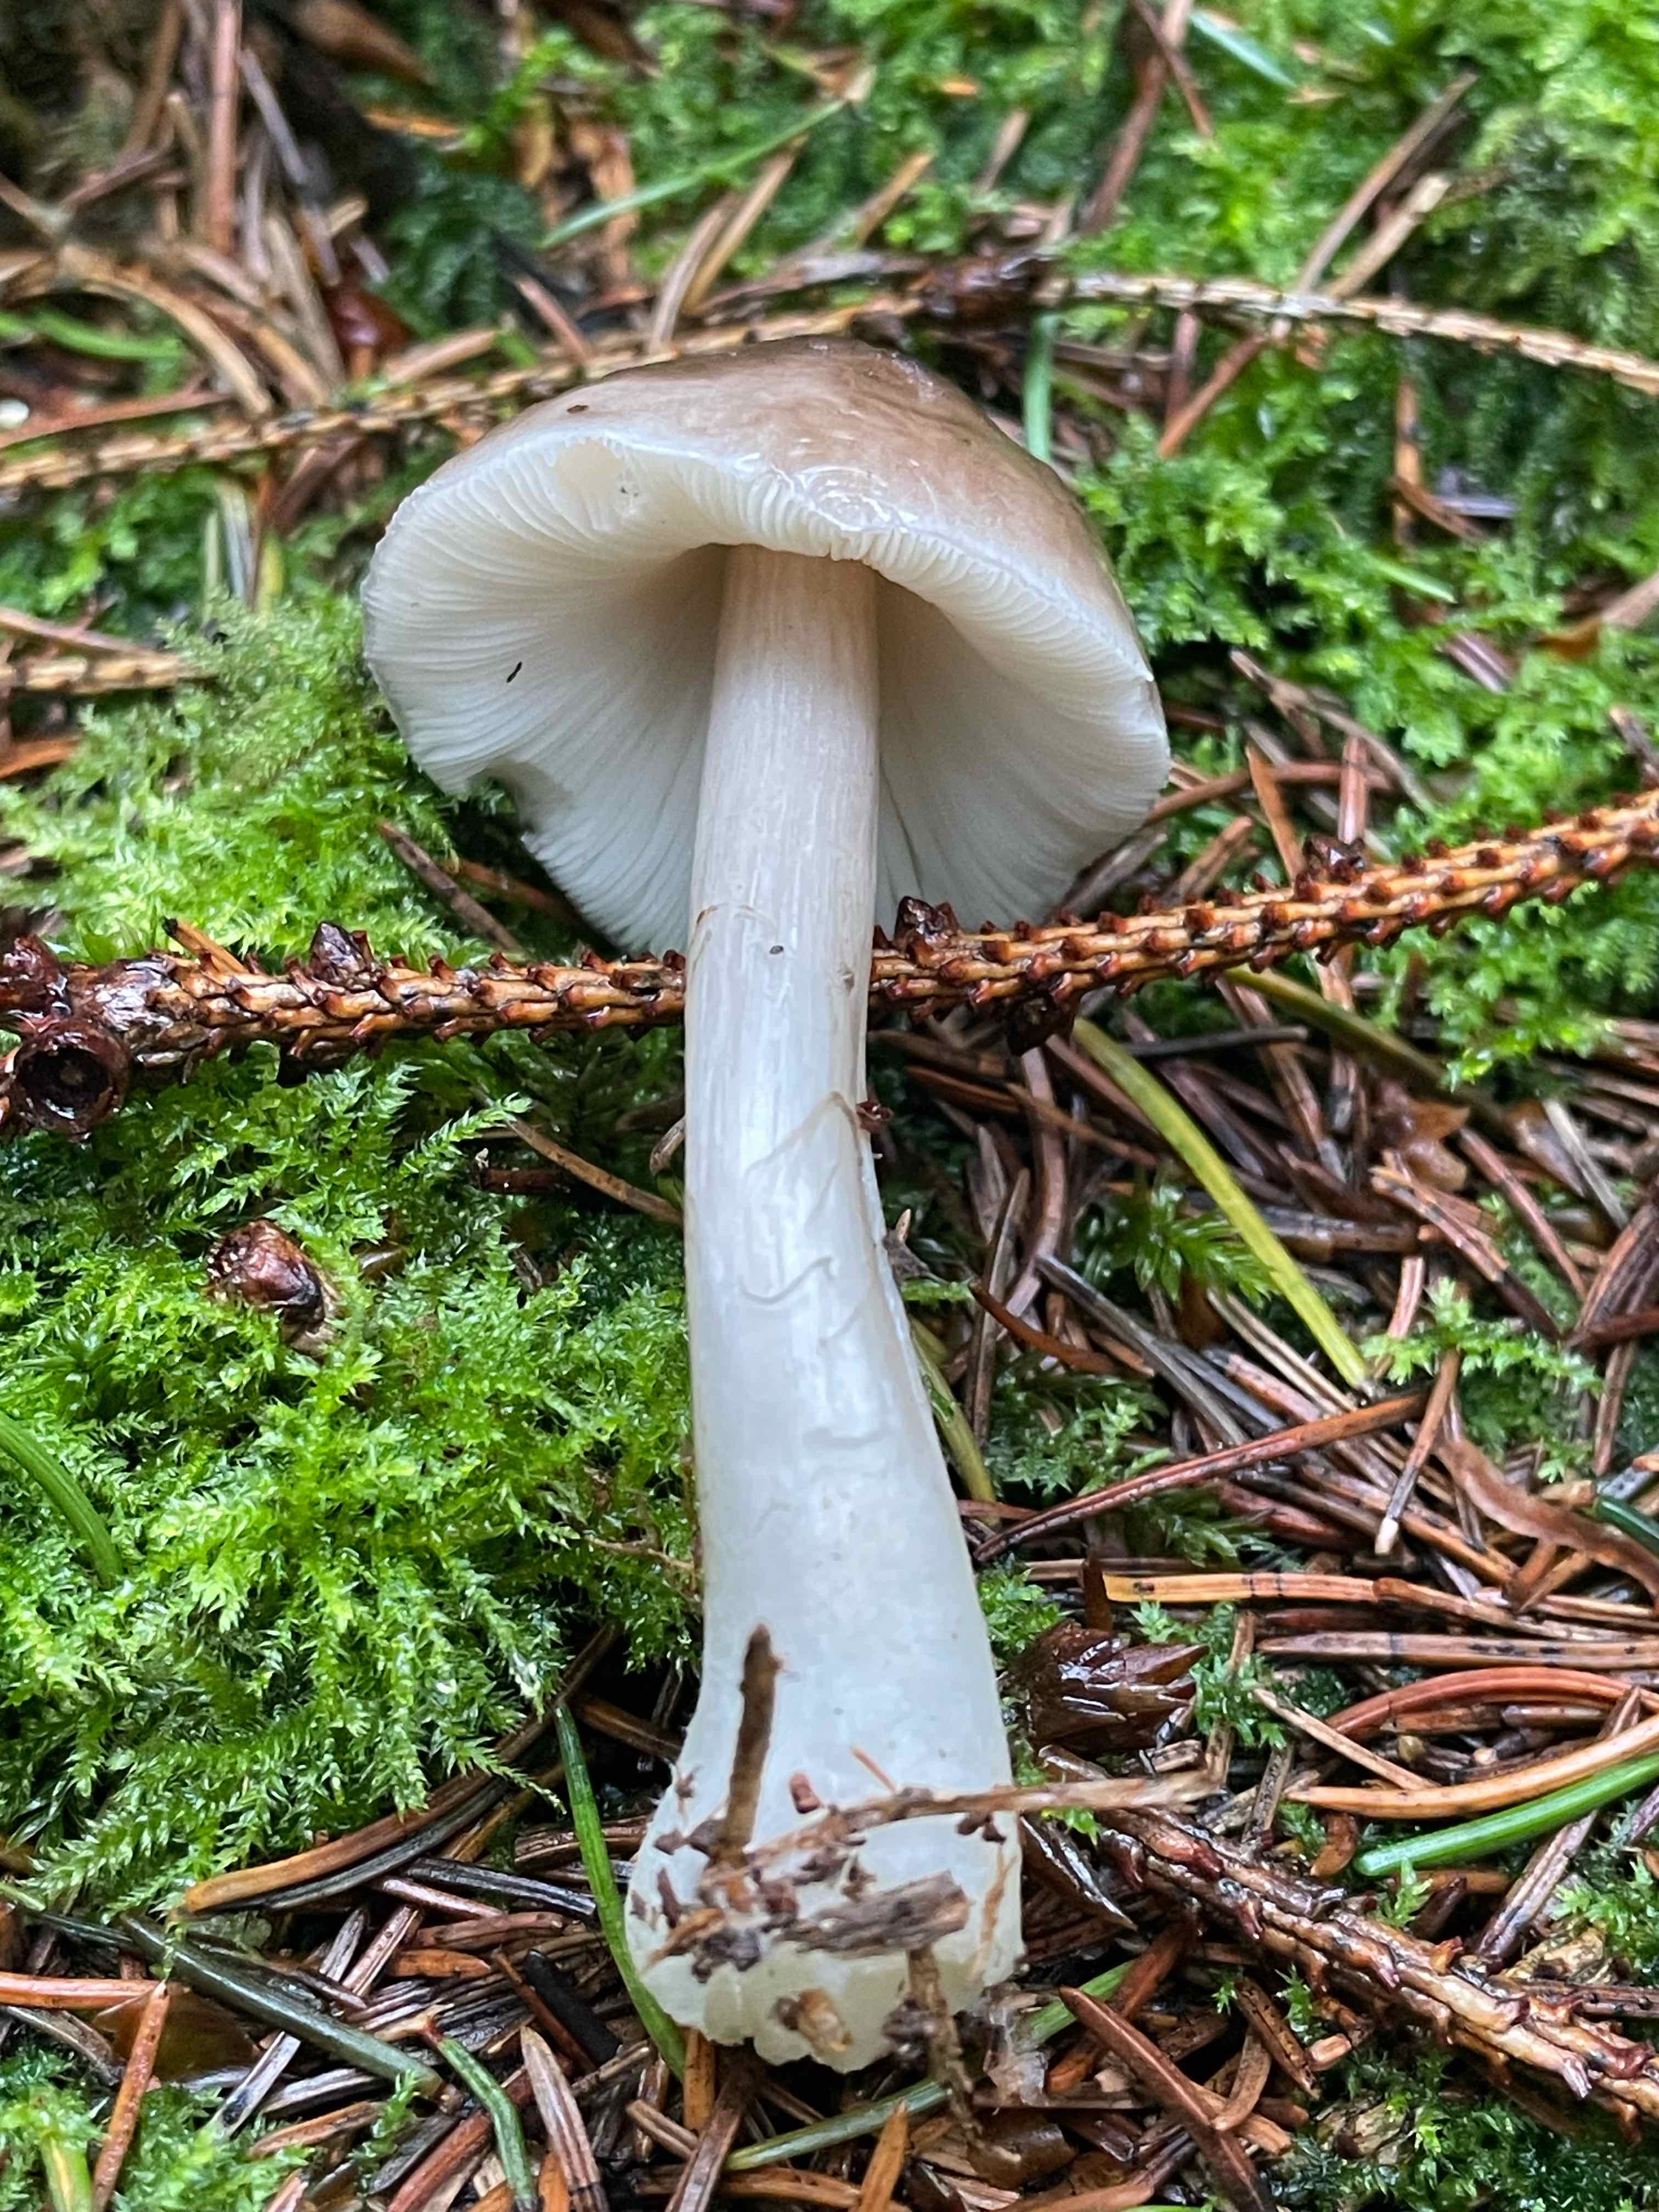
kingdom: Fungi
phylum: Basidiomycota
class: Agaricomycetes
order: Agaricales
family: Pluteaceae
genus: Pluteus
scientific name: Pluteus
